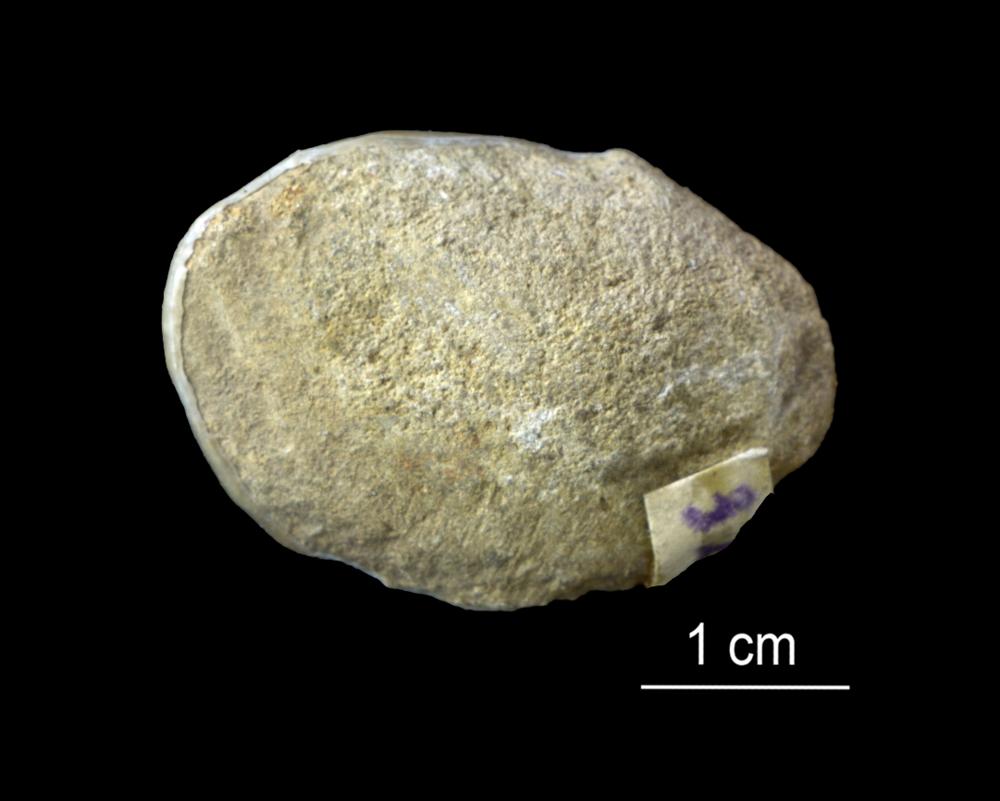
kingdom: Animalia
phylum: Mollusca
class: Bivalvia
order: Lucinida
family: Lucinidae
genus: Illionia
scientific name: Illionia Lucina prisca
